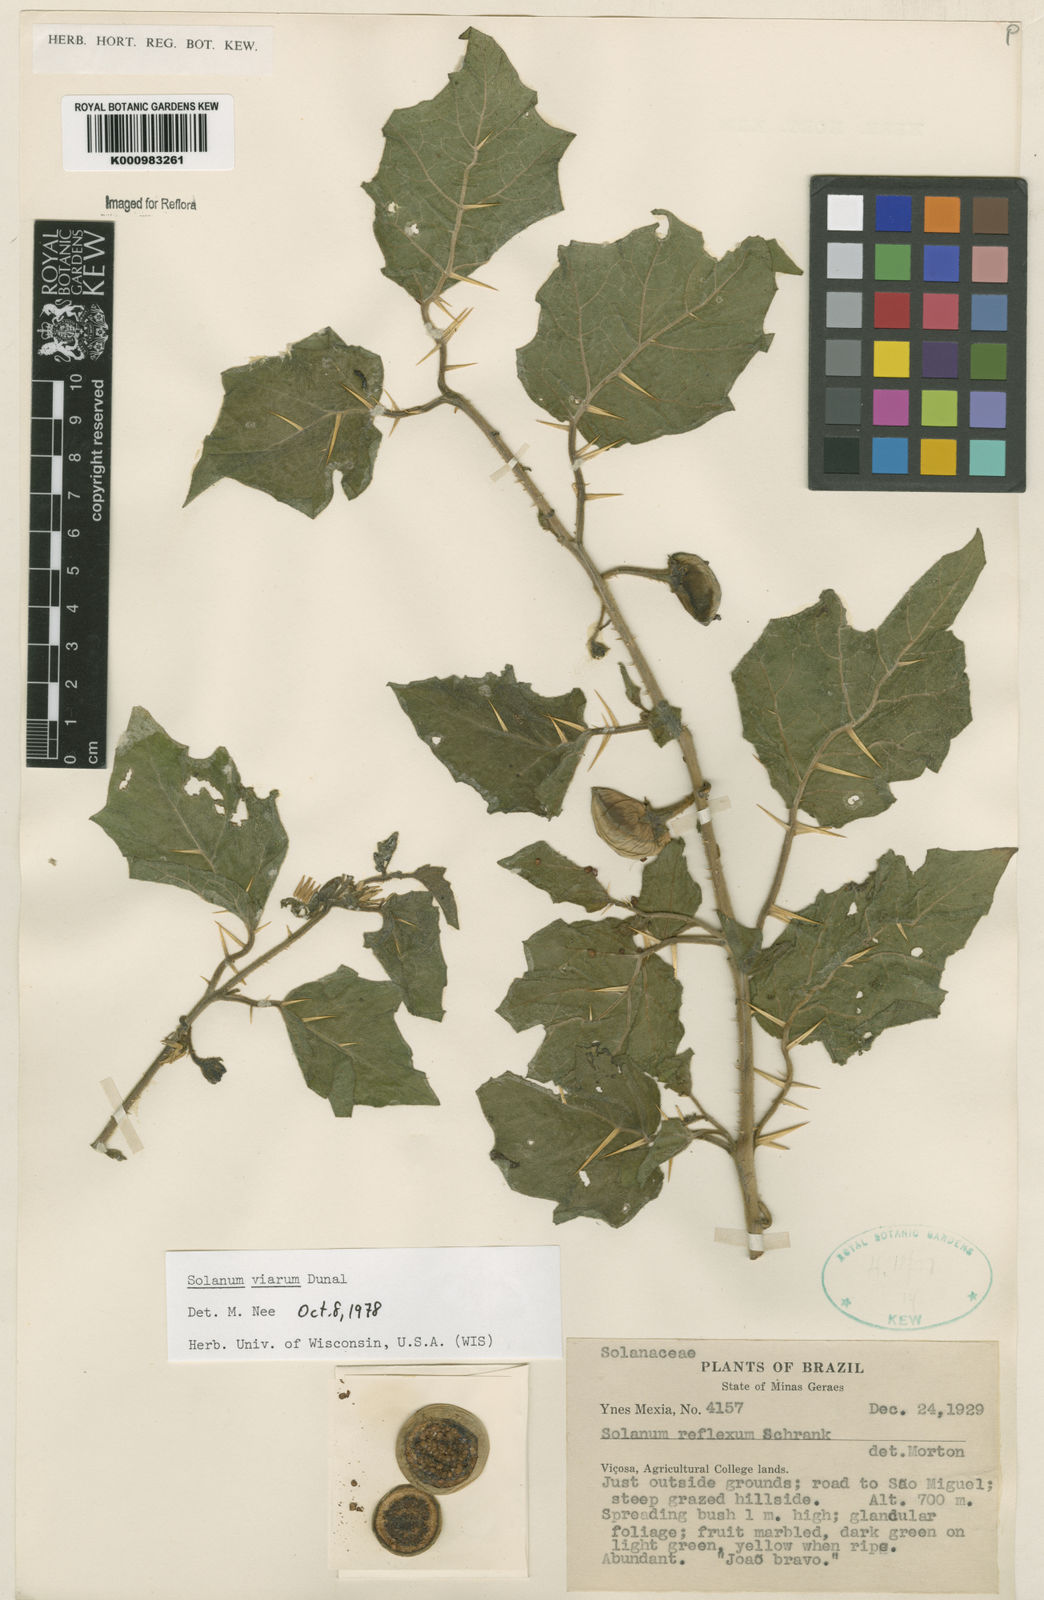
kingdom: Plantae
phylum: Tracheophyta
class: Magnoliopsida
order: Solanales
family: Solanaceae
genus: Solanum
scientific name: Solanum viarum
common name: Tropical soda apple
